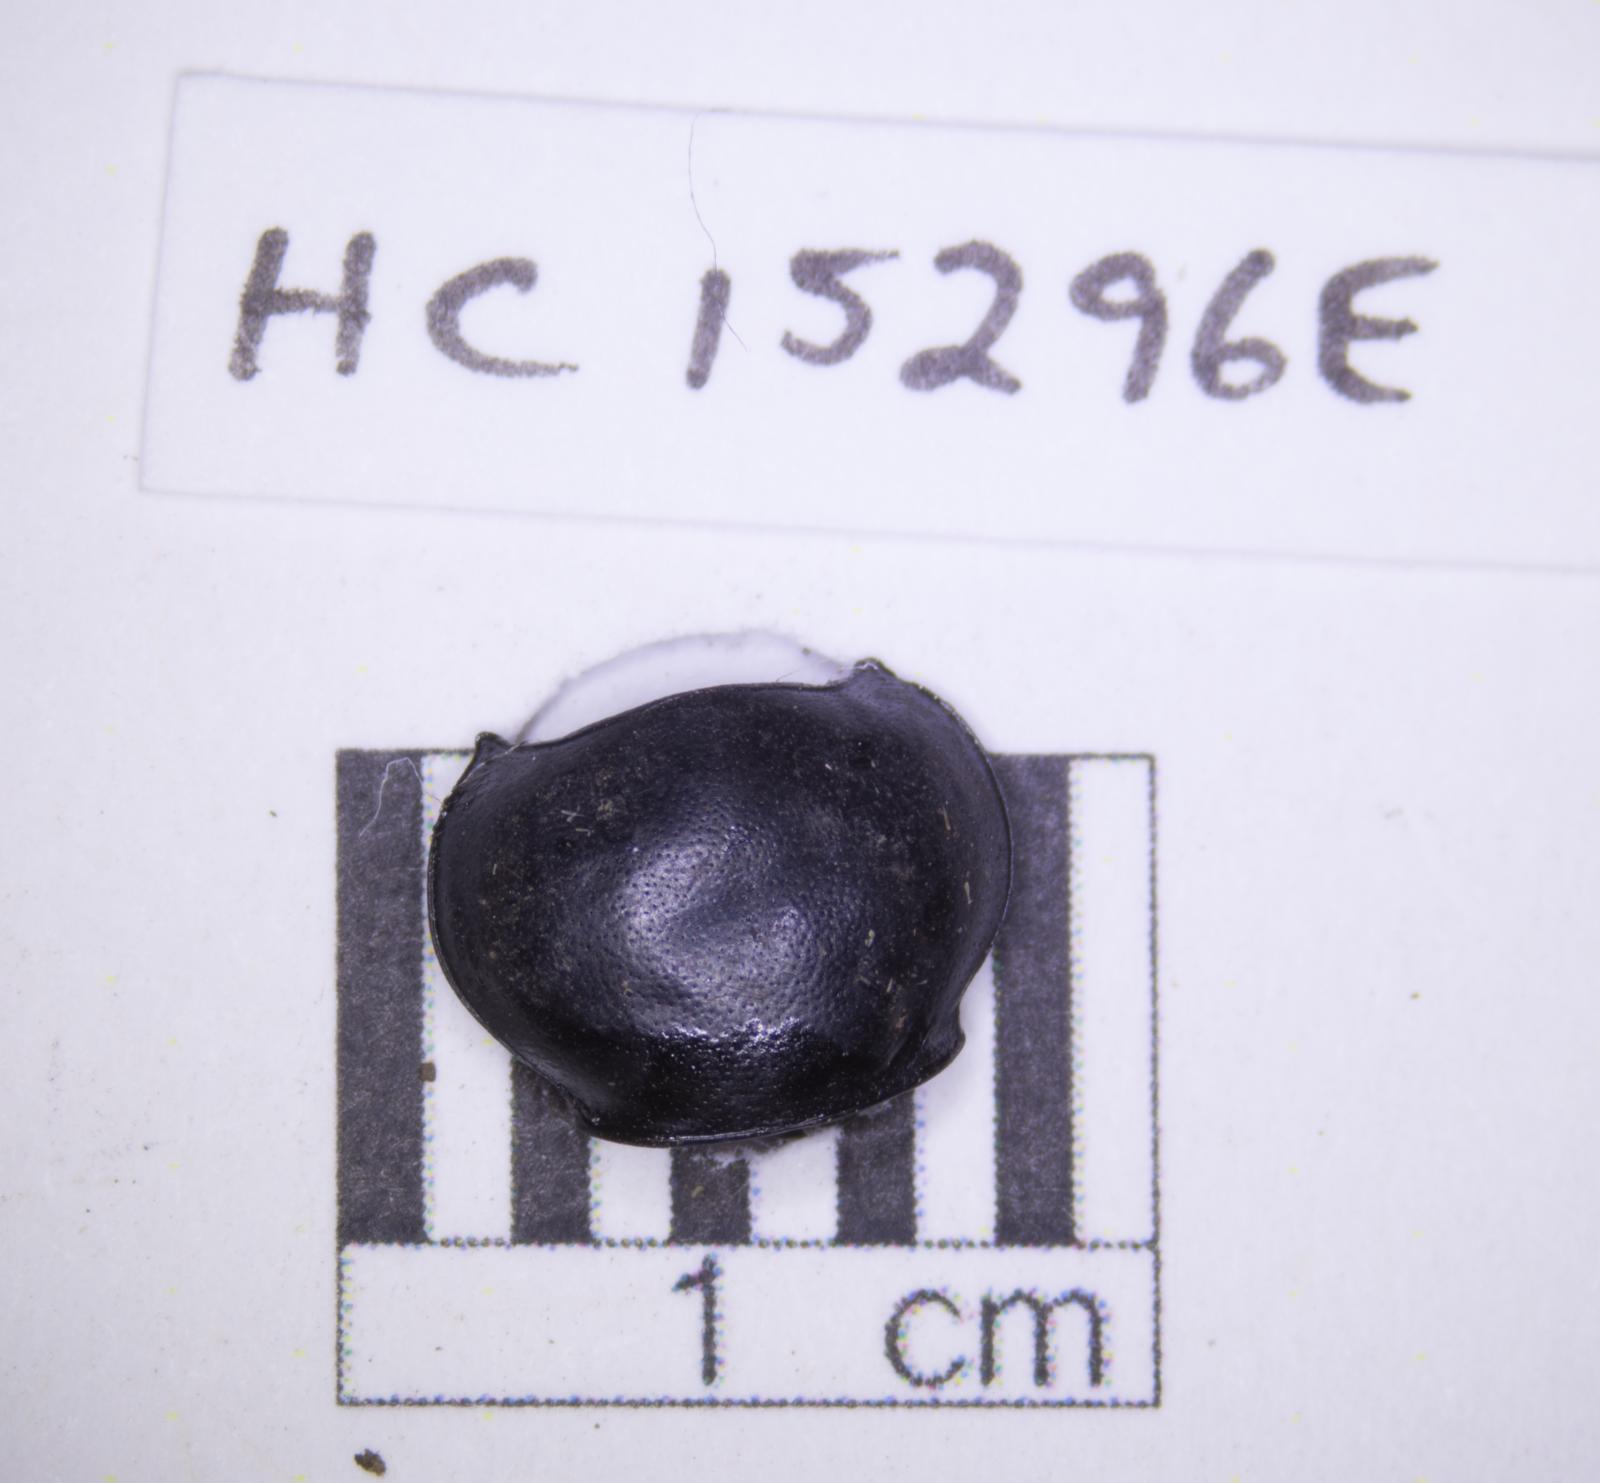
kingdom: Animalia
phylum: Arthropoda
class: Insecta
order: Coleoptera
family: Tenebrionidae
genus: Eleodes
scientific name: Eleodes acuticauda
